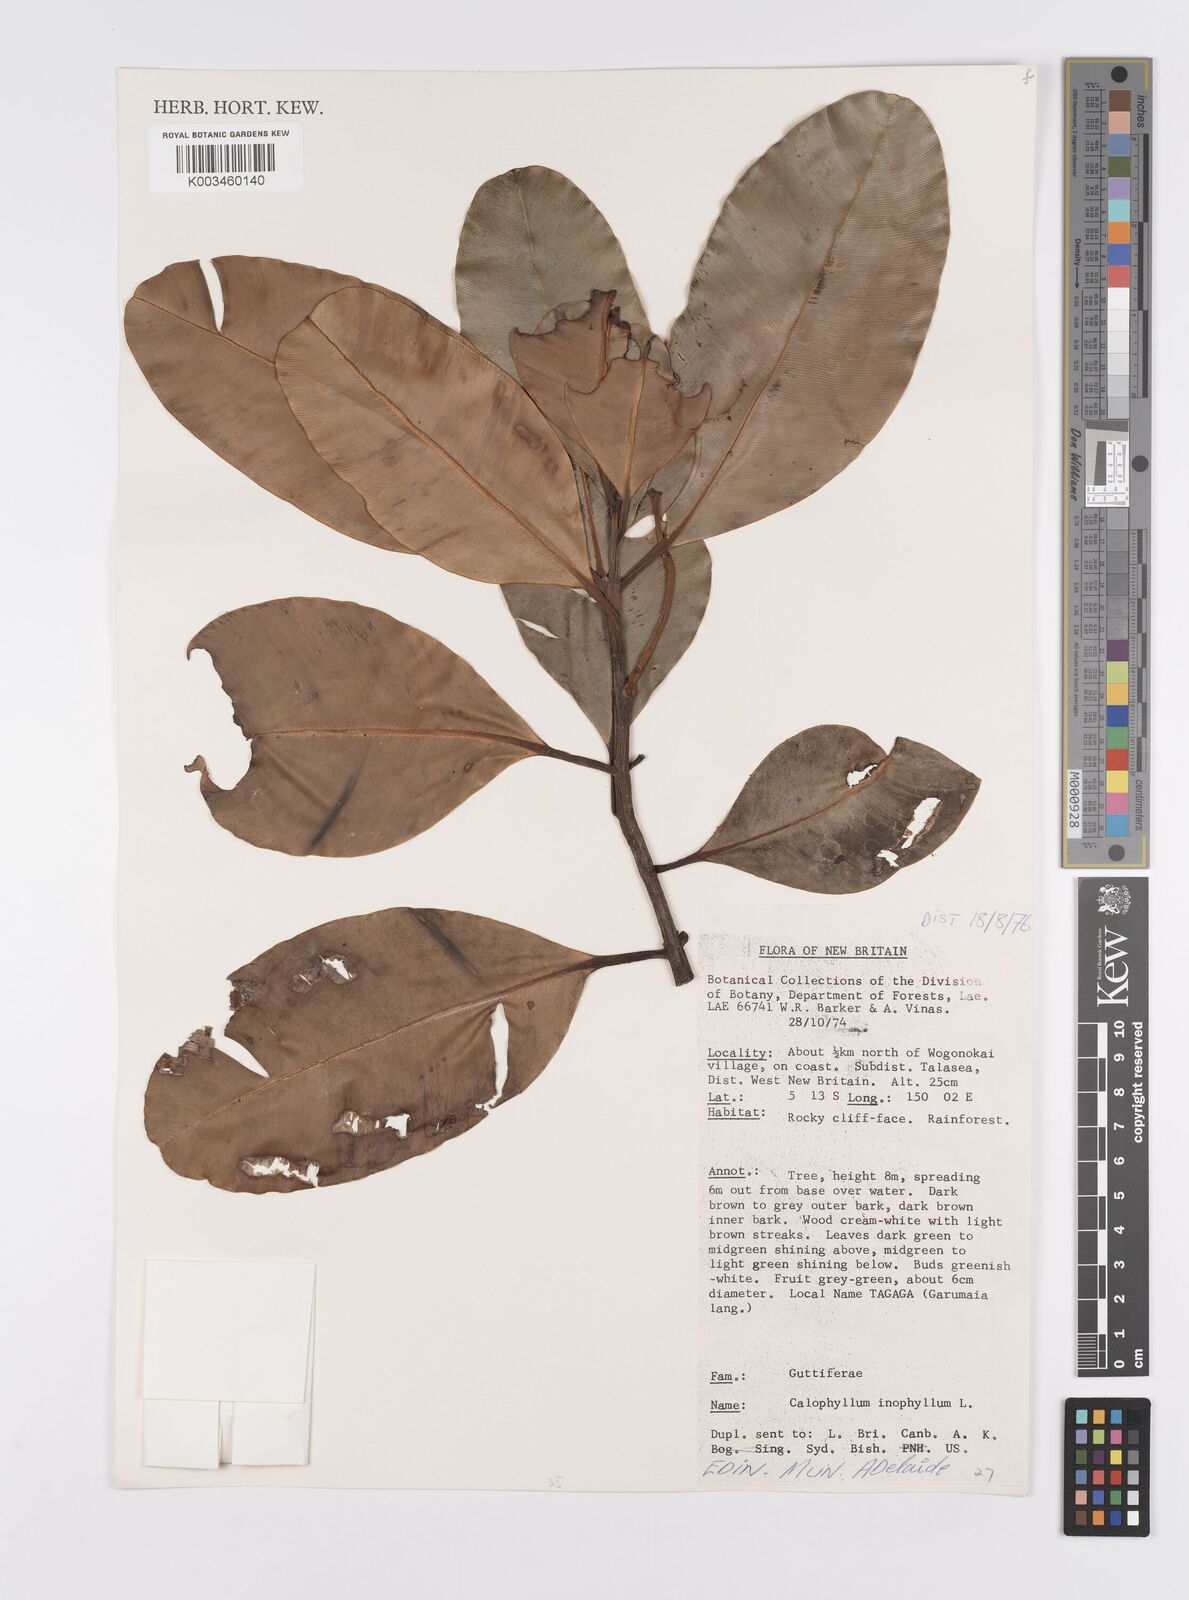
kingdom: Plantae
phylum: Tracheophyta
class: Magnoliopsida
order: Malpighiales
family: Calophyllaceae
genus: Calophyllum
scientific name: Calophyllum inophyllum
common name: Alexandrian laurel
